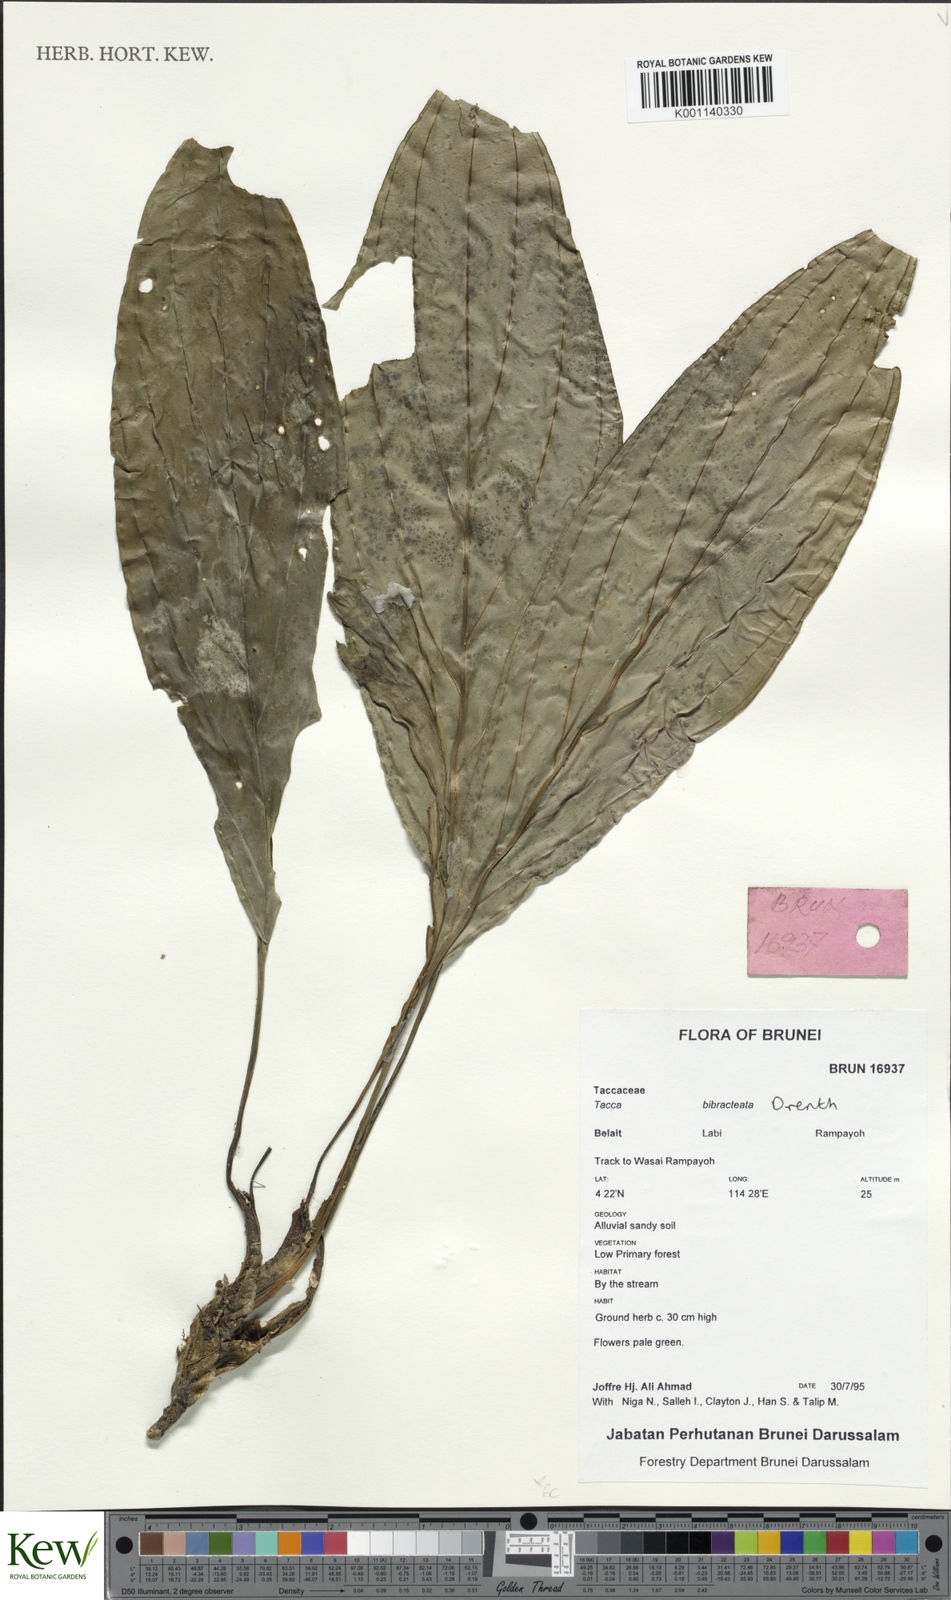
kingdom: Plantae
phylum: Tracheophyta
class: Liliopsida
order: Dioscoreales
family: Dioscoreaceae
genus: Tacca
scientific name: Tacca bibracteata
